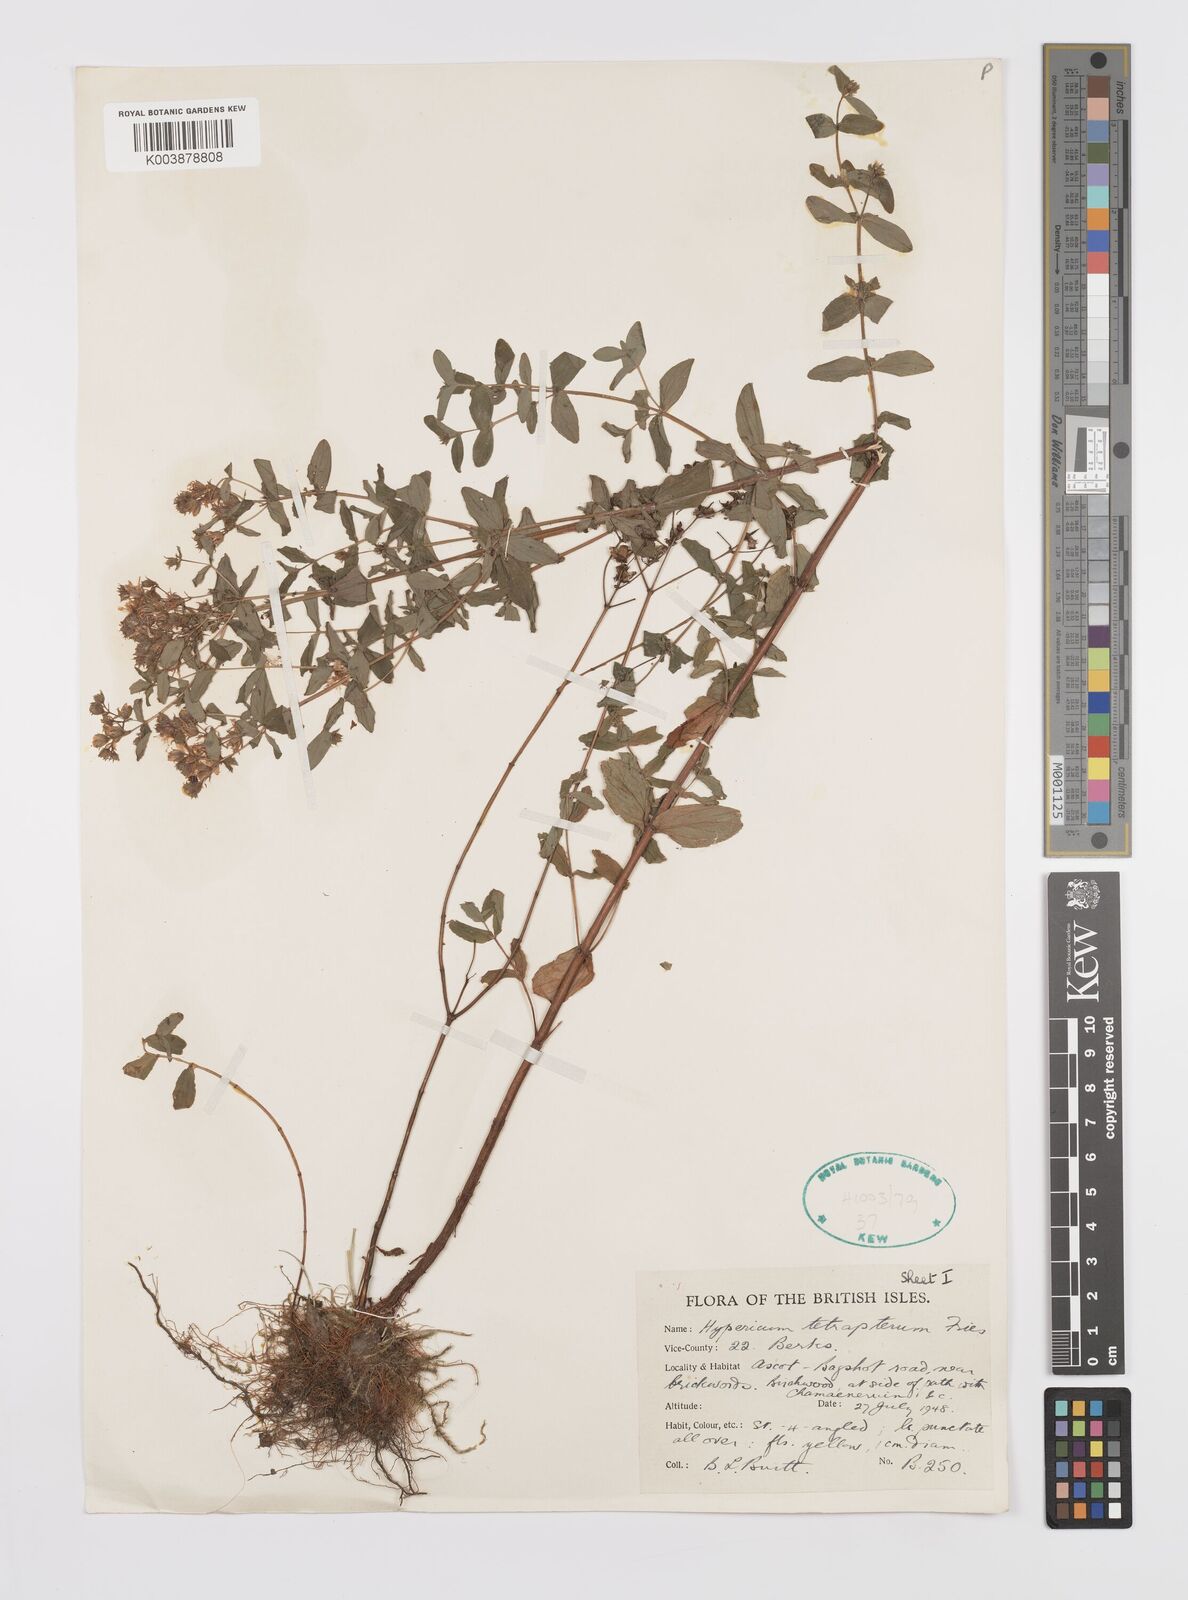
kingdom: Plantae
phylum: Tracheophyta
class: Magnoliopsida
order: Malpighiales
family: Hypericaceae
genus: Hypericum
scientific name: Hypericum tetrapterum
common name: Square-stalked st. john's-wort
